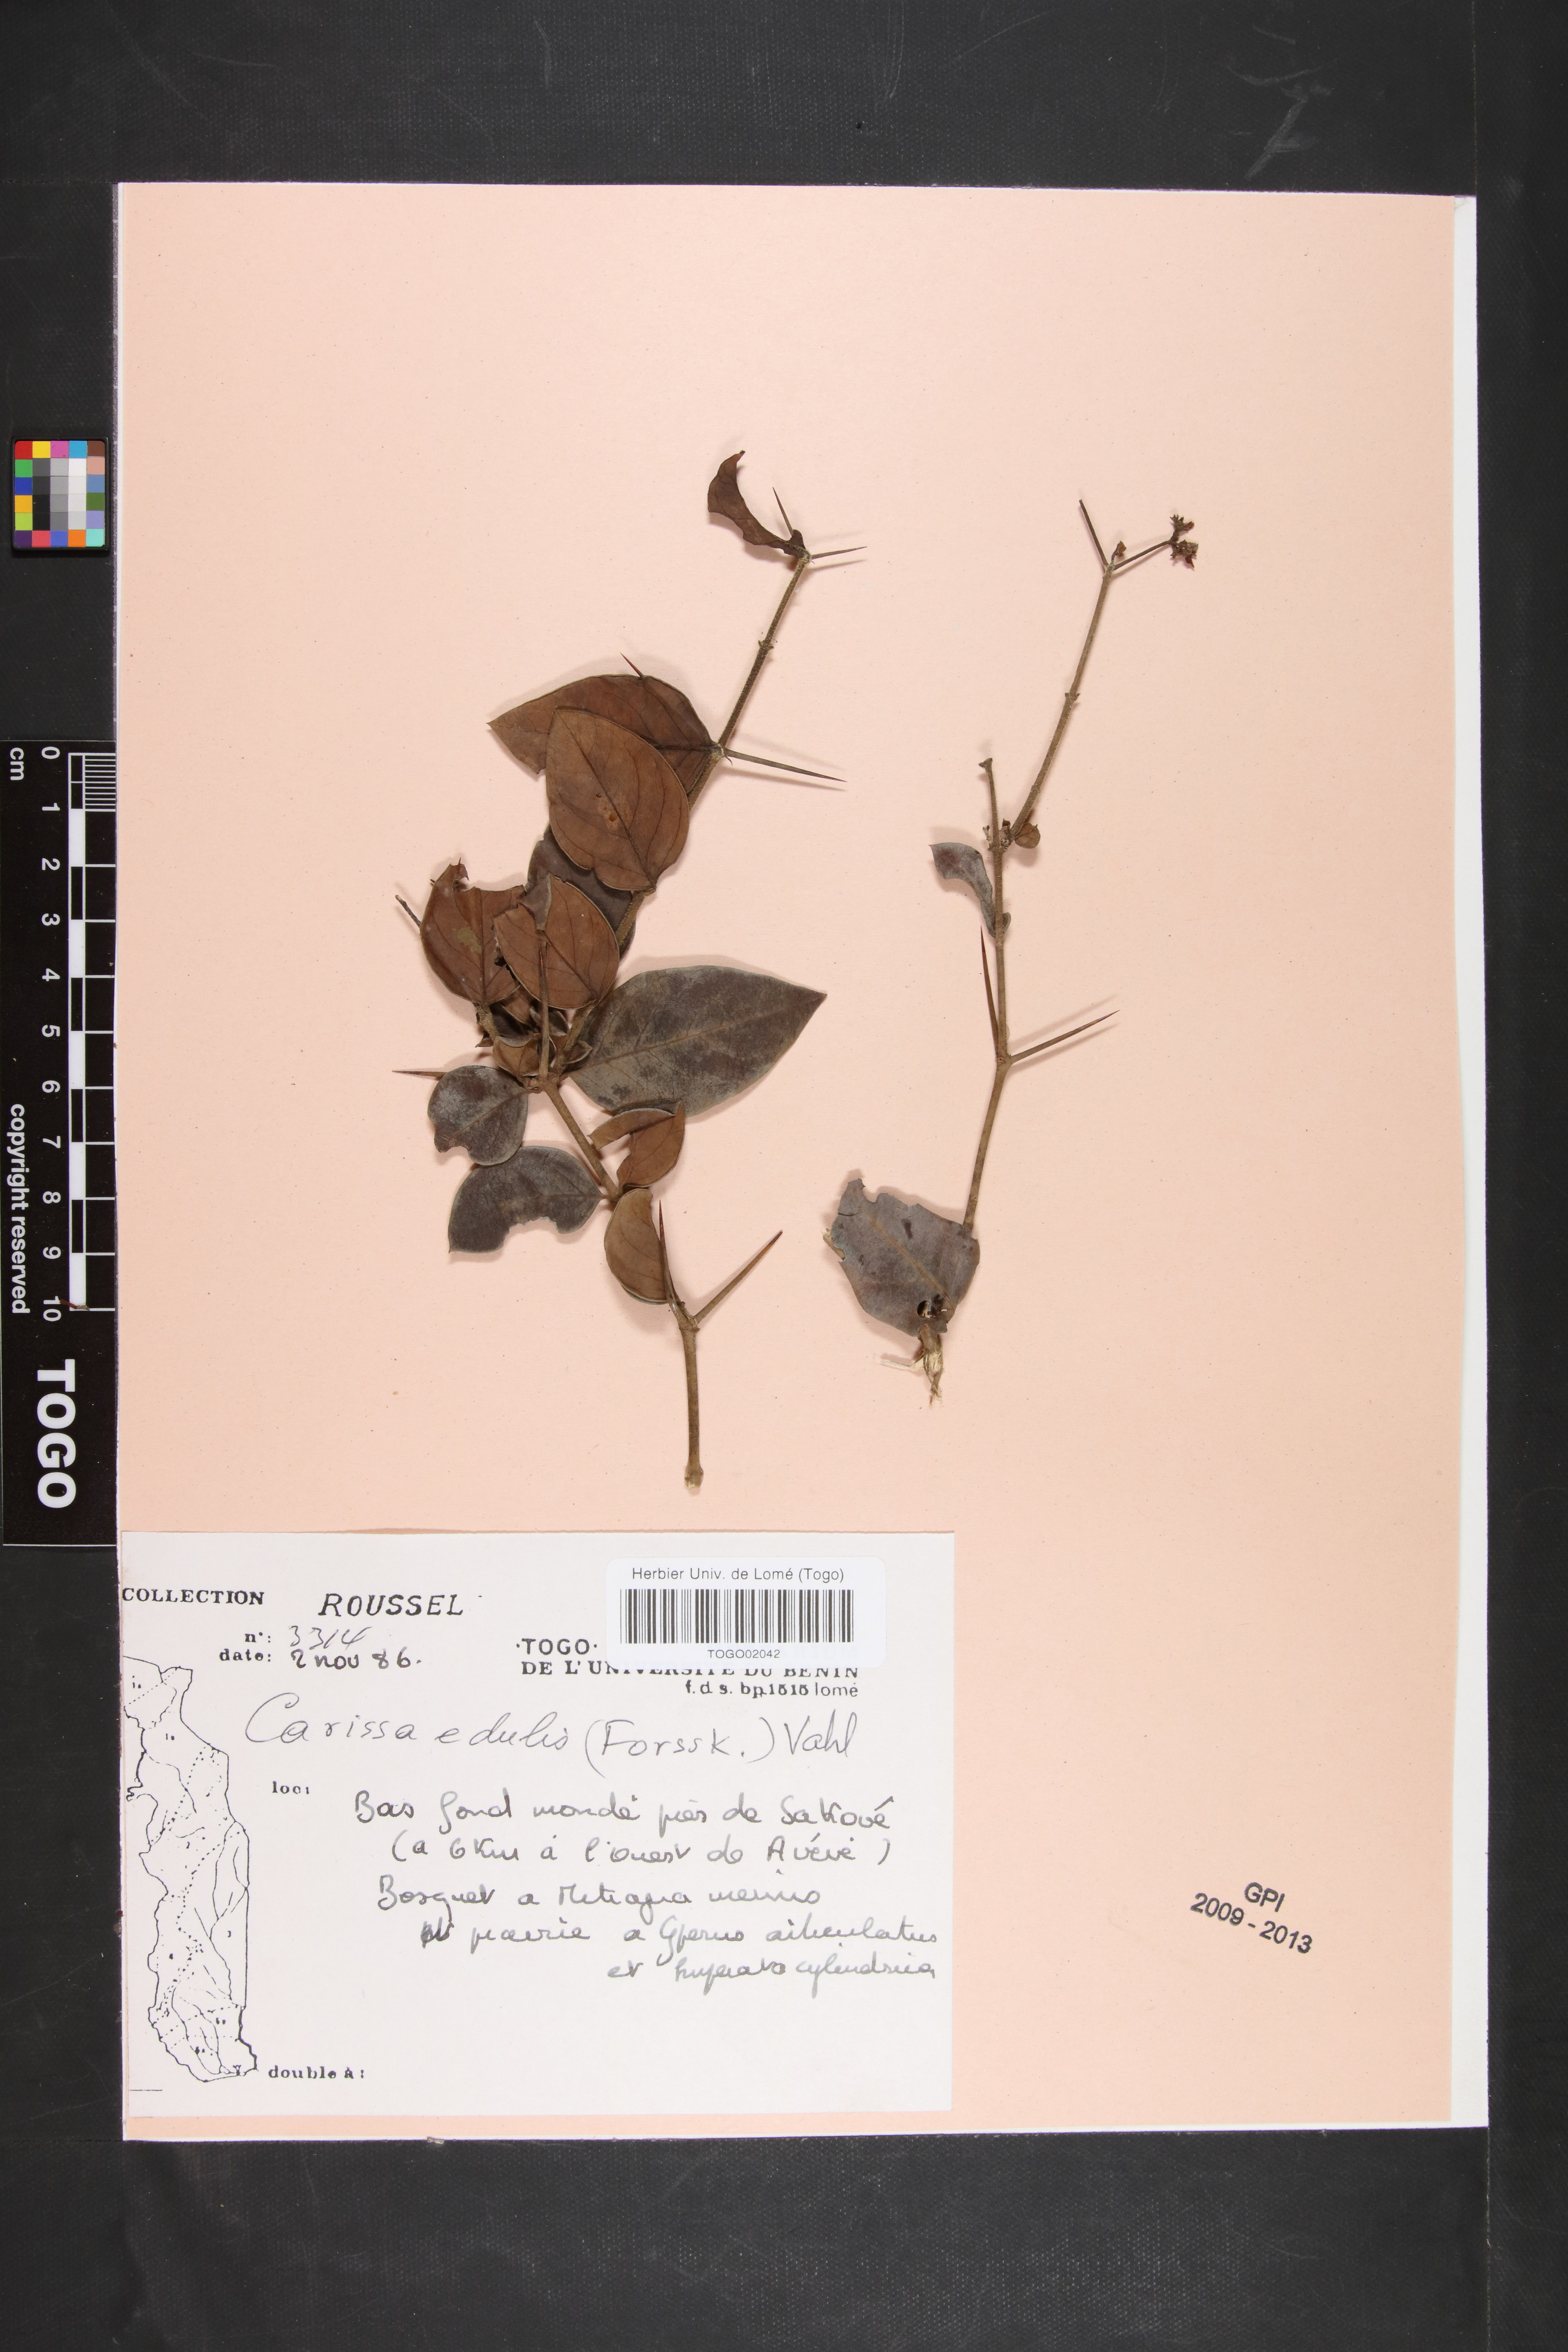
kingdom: Plantae
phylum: Tracheophyta
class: Magnoliopsida
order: Gentianales
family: Apocynaceae
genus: Carissa
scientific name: Carissa spinarum
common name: Egyptian carissa
